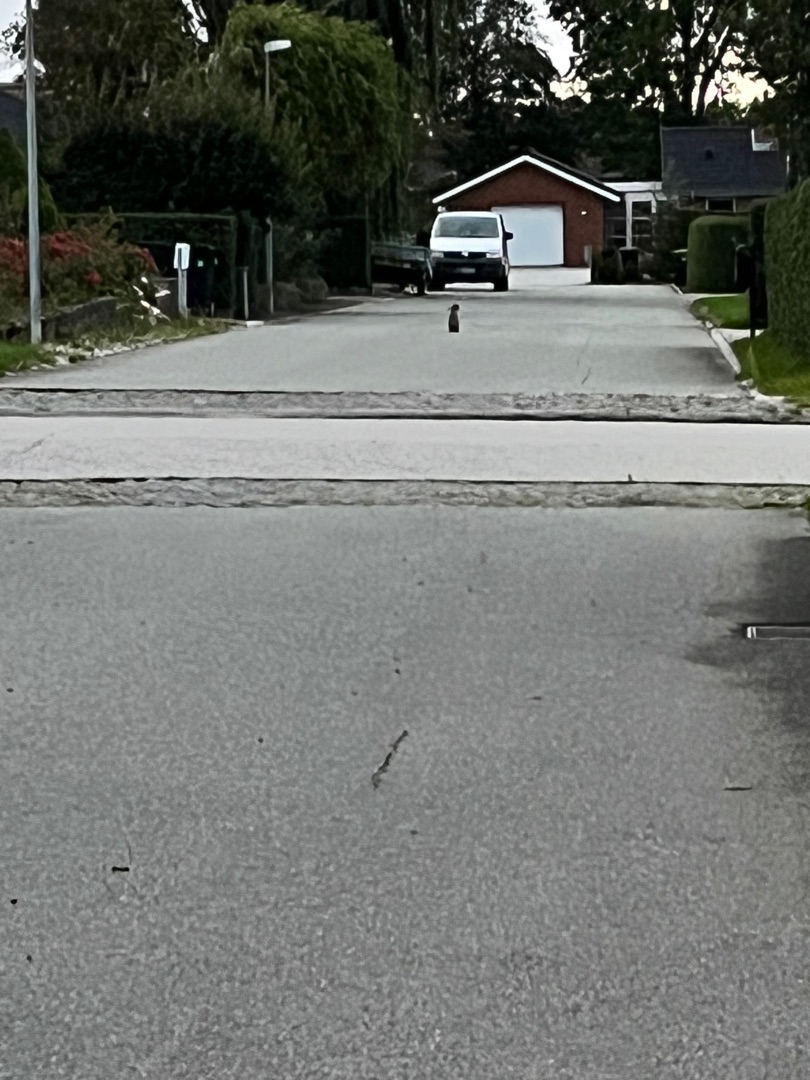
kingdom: Animalia
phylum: Chordata
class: Mammalia
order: Lagomorpha
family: Leporidae
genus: Lepus
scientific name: Lepus europaeus
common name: Hare
